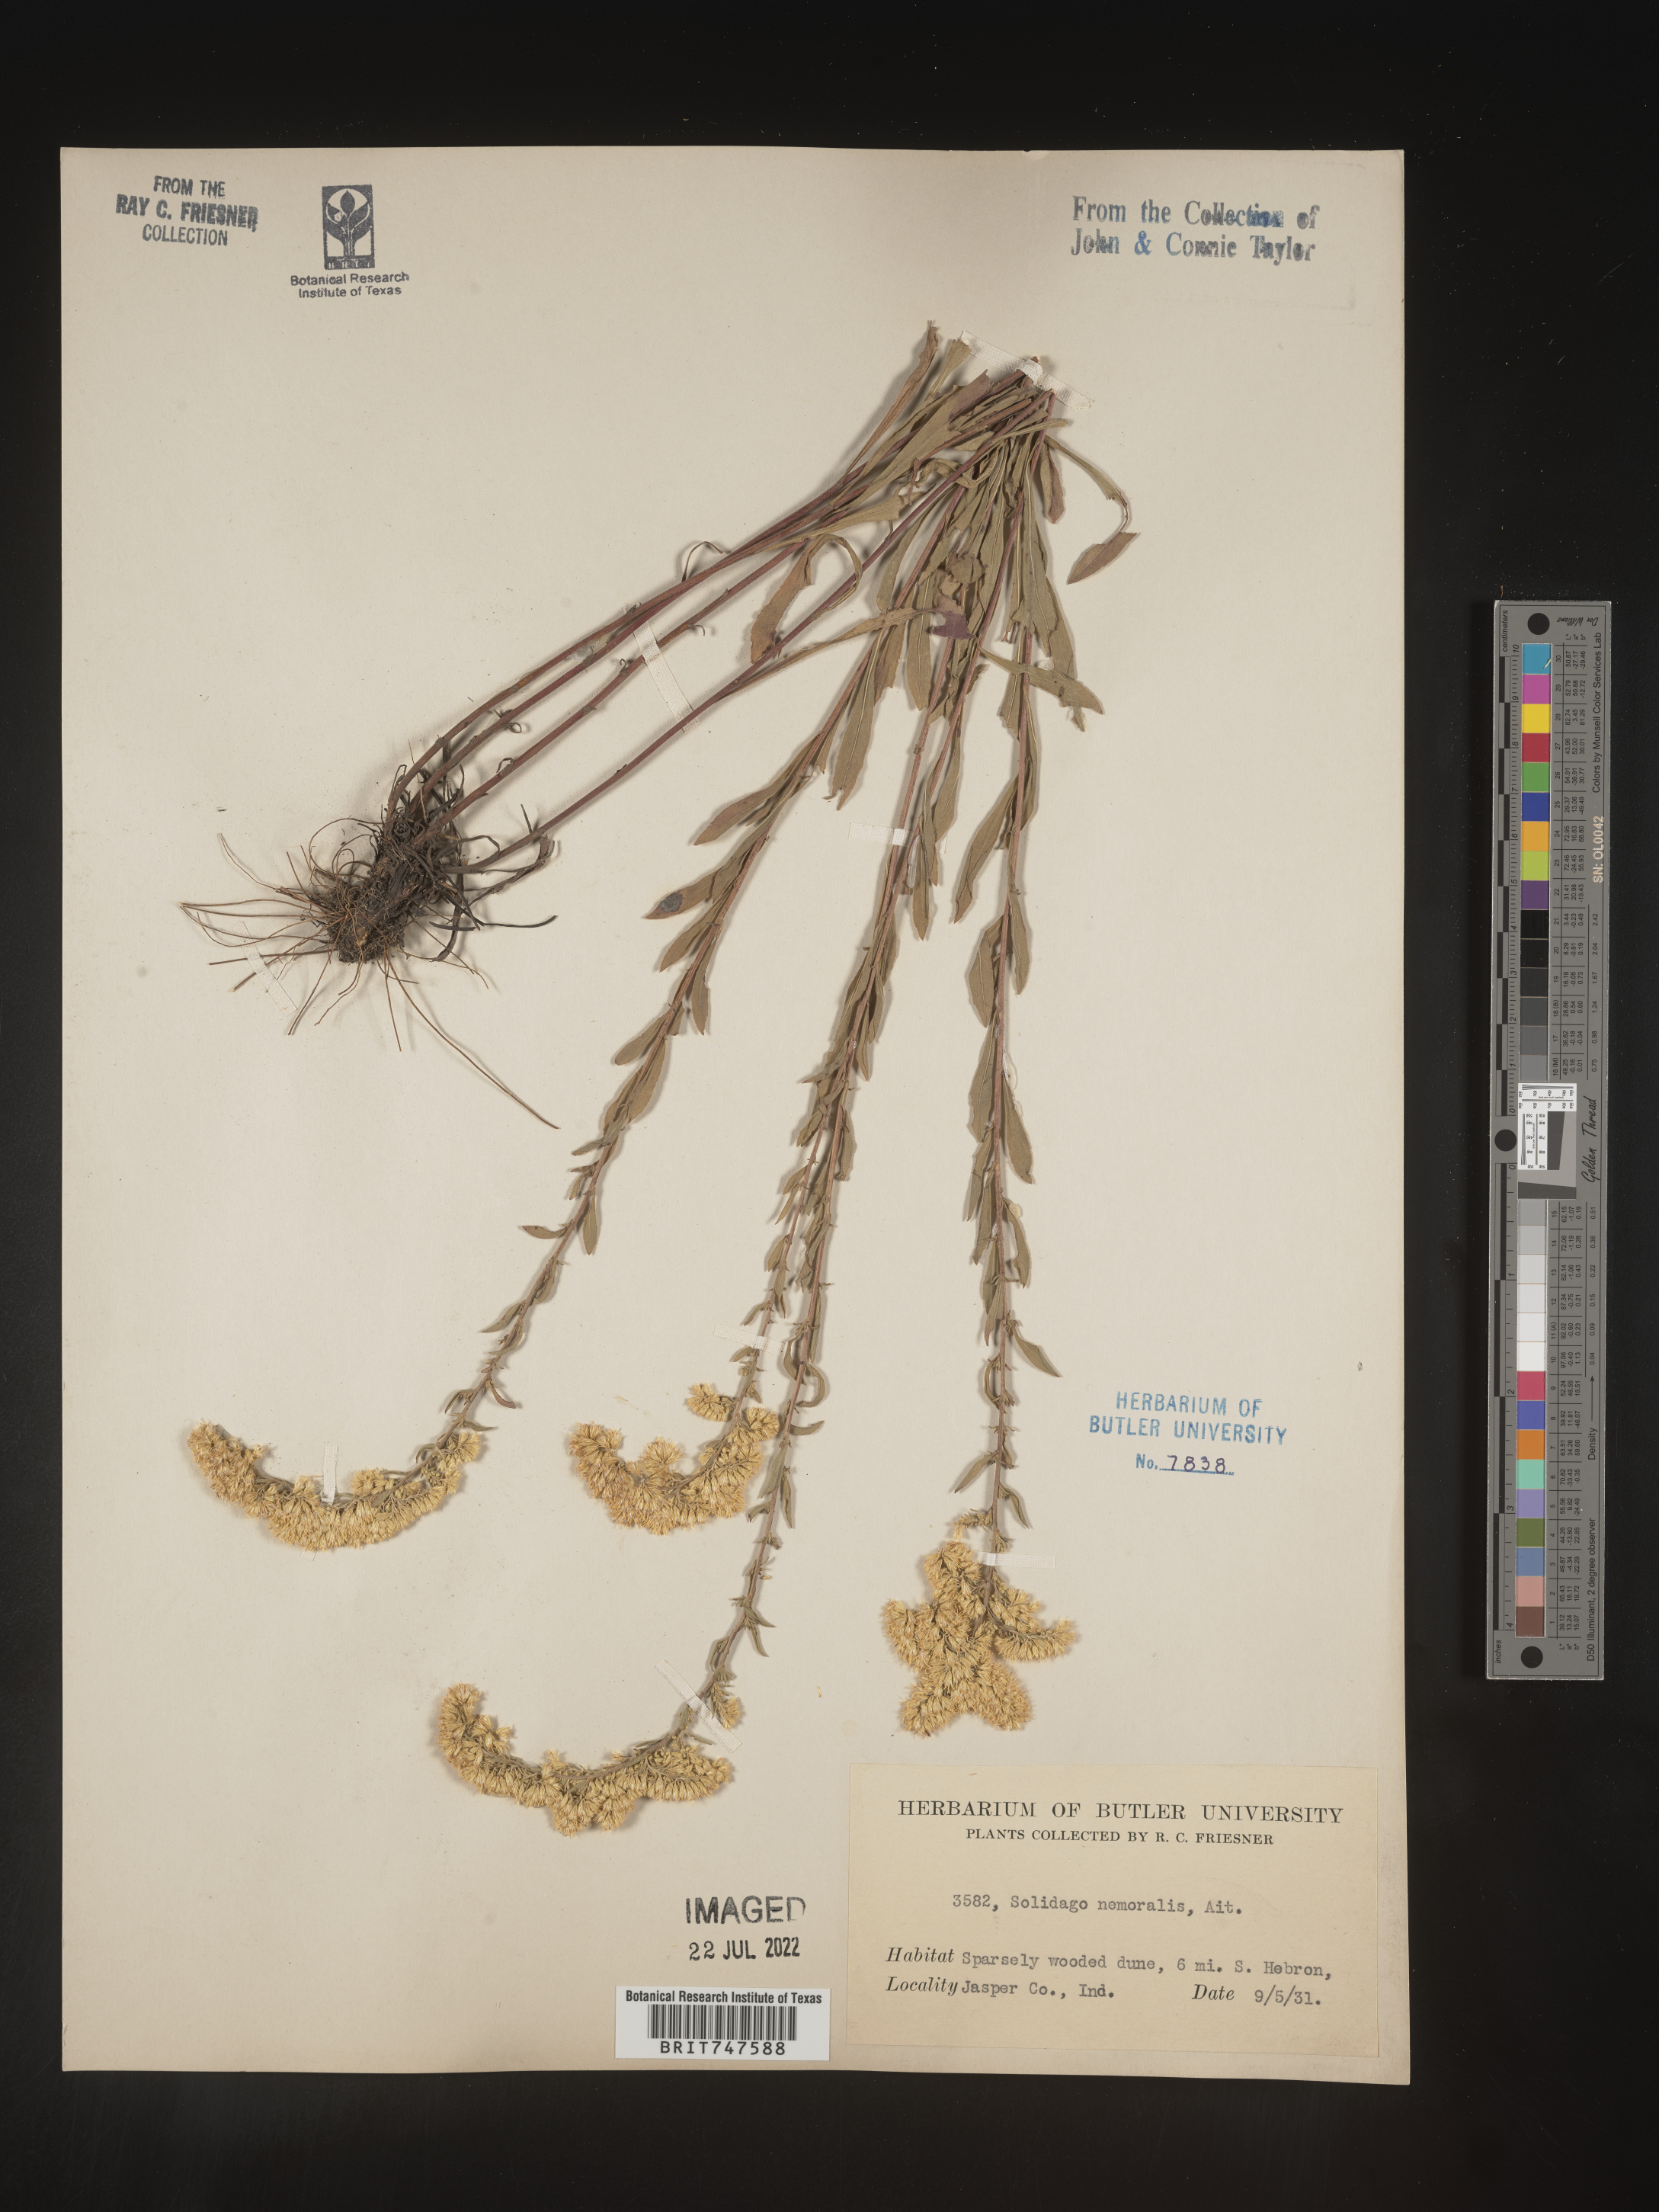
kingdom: Plantae
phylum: Tracheophyta
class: Magnoliopsida
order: Asterales
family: Asteraceae
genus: Solidago
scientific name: Solidago nemoralis
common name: Grey goldenrod
